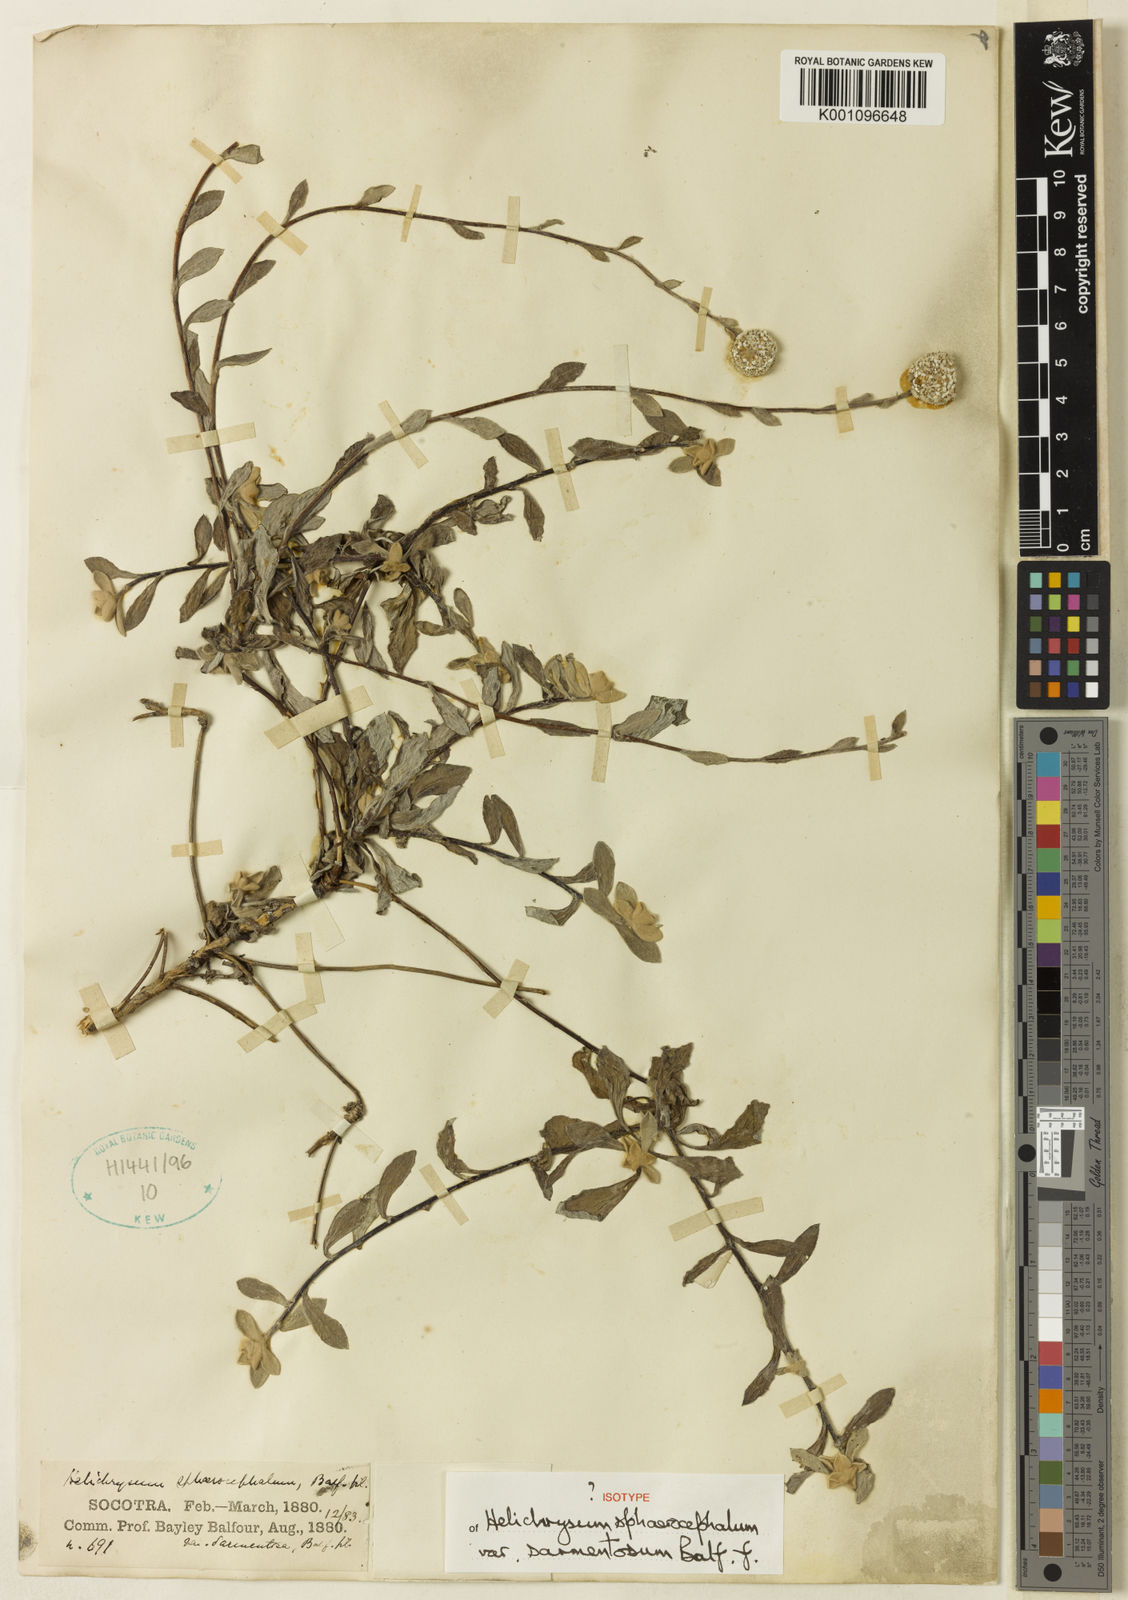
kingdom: Plantae
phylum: Tracheophyta
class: Magnoliopsida
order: Asterales
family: Asteraceae
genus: Helichrysum
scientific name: Helichrysum
